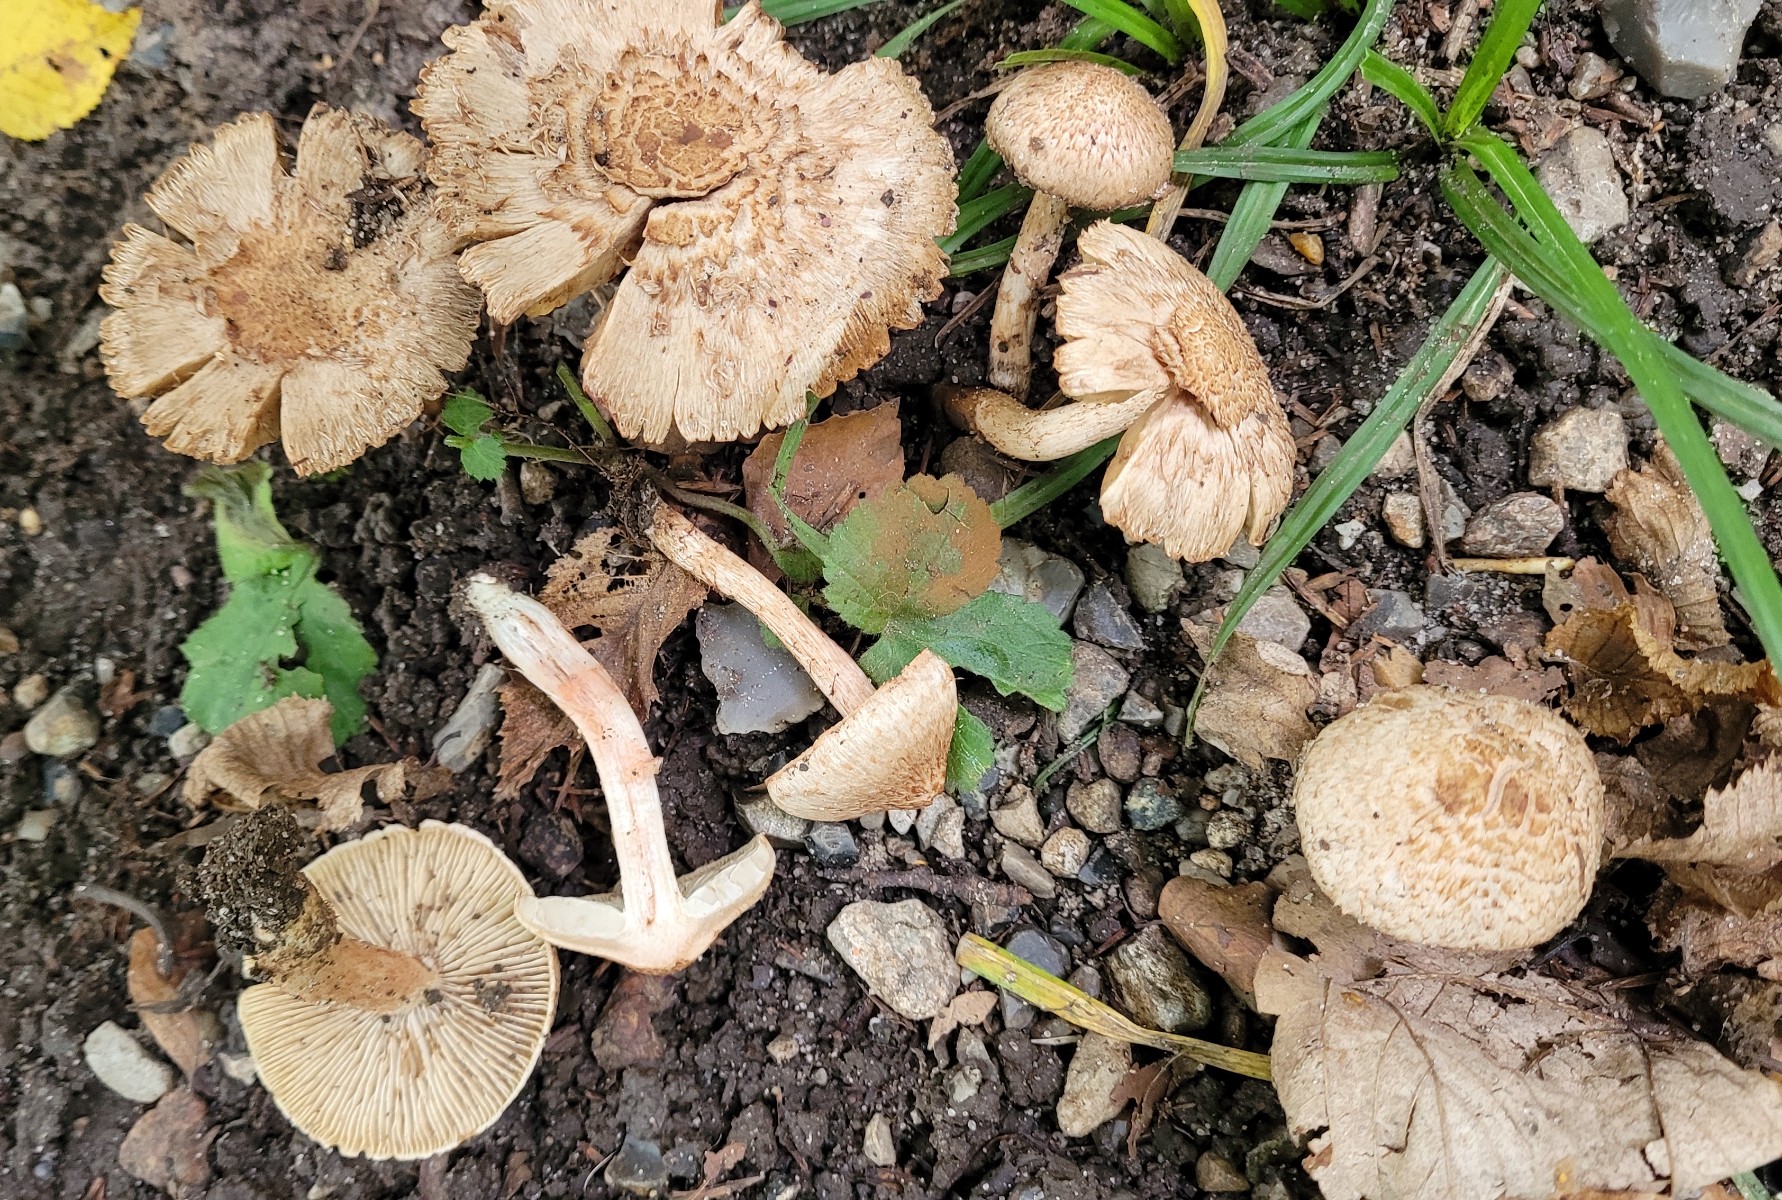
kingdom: Fungi
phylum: Basidiomycota
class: Agaricomycetes
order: Agaricales
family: Inocybaceae
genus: Inosperma
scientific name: Inosperma bongardii
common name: Bongards trævlhat
